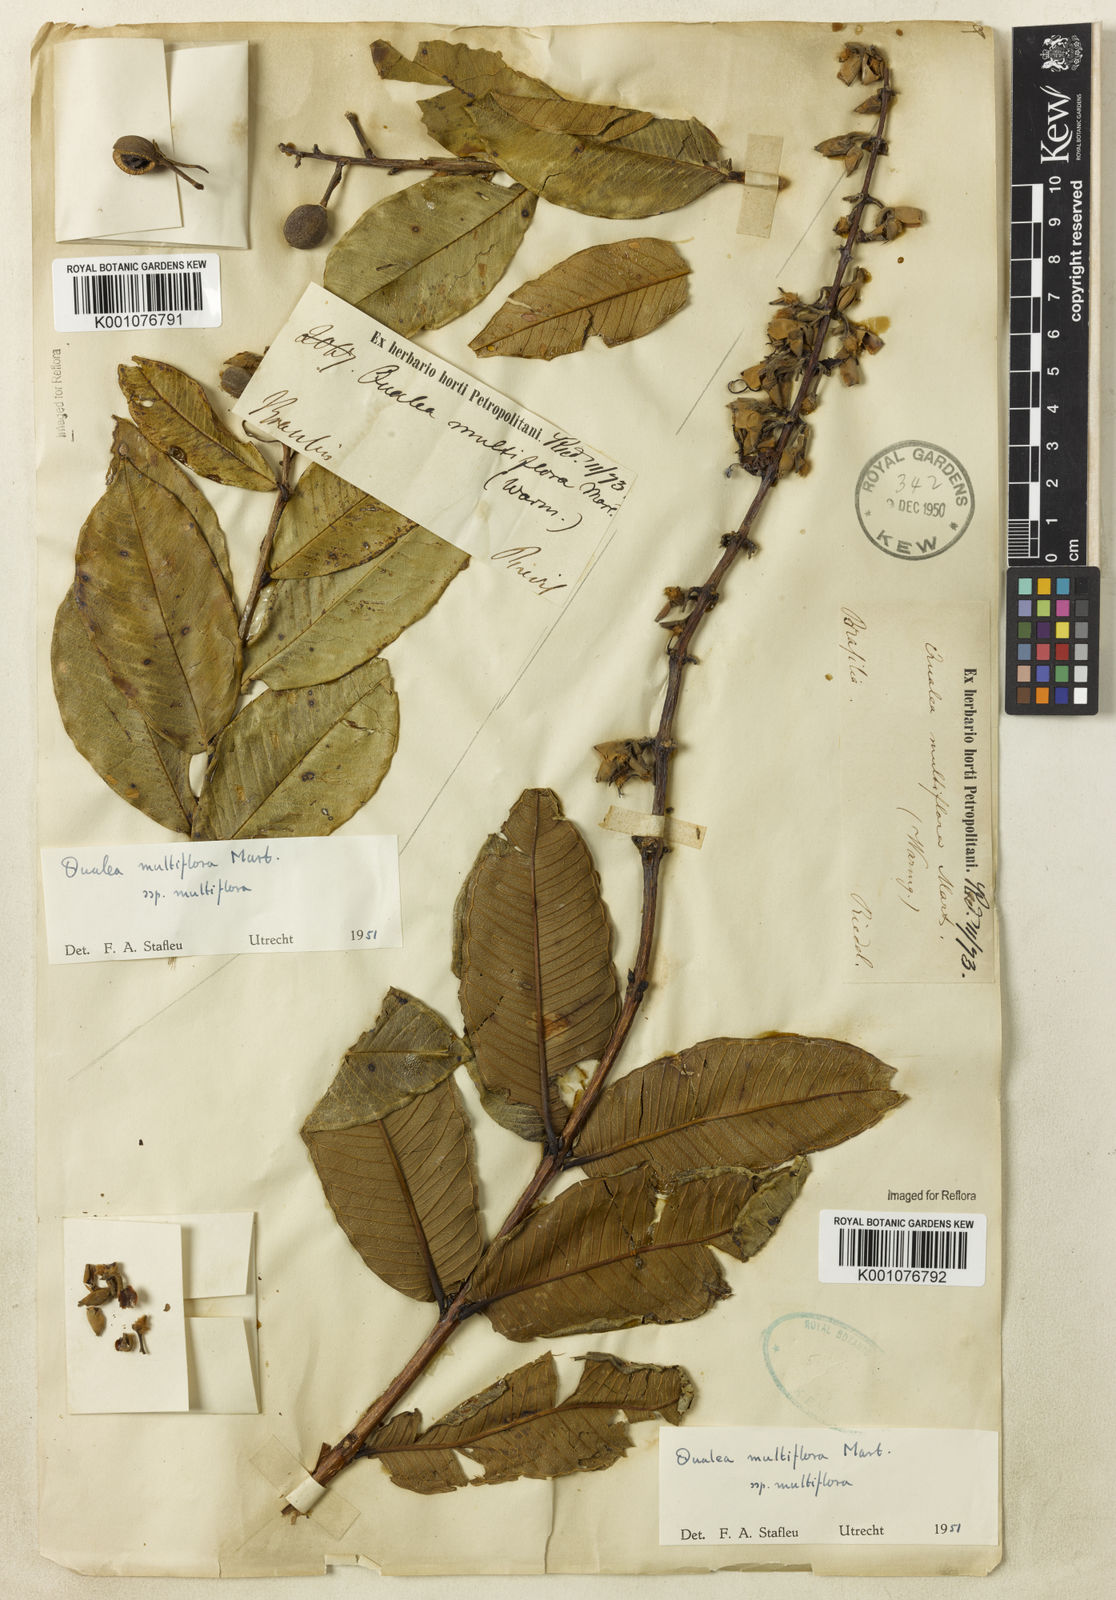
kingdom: Plantae
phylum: Tracheophyta
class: Magnoliopsida
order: Myrtales
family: Vochysiaceae
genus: Qualea
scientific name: Qualea multiflora
